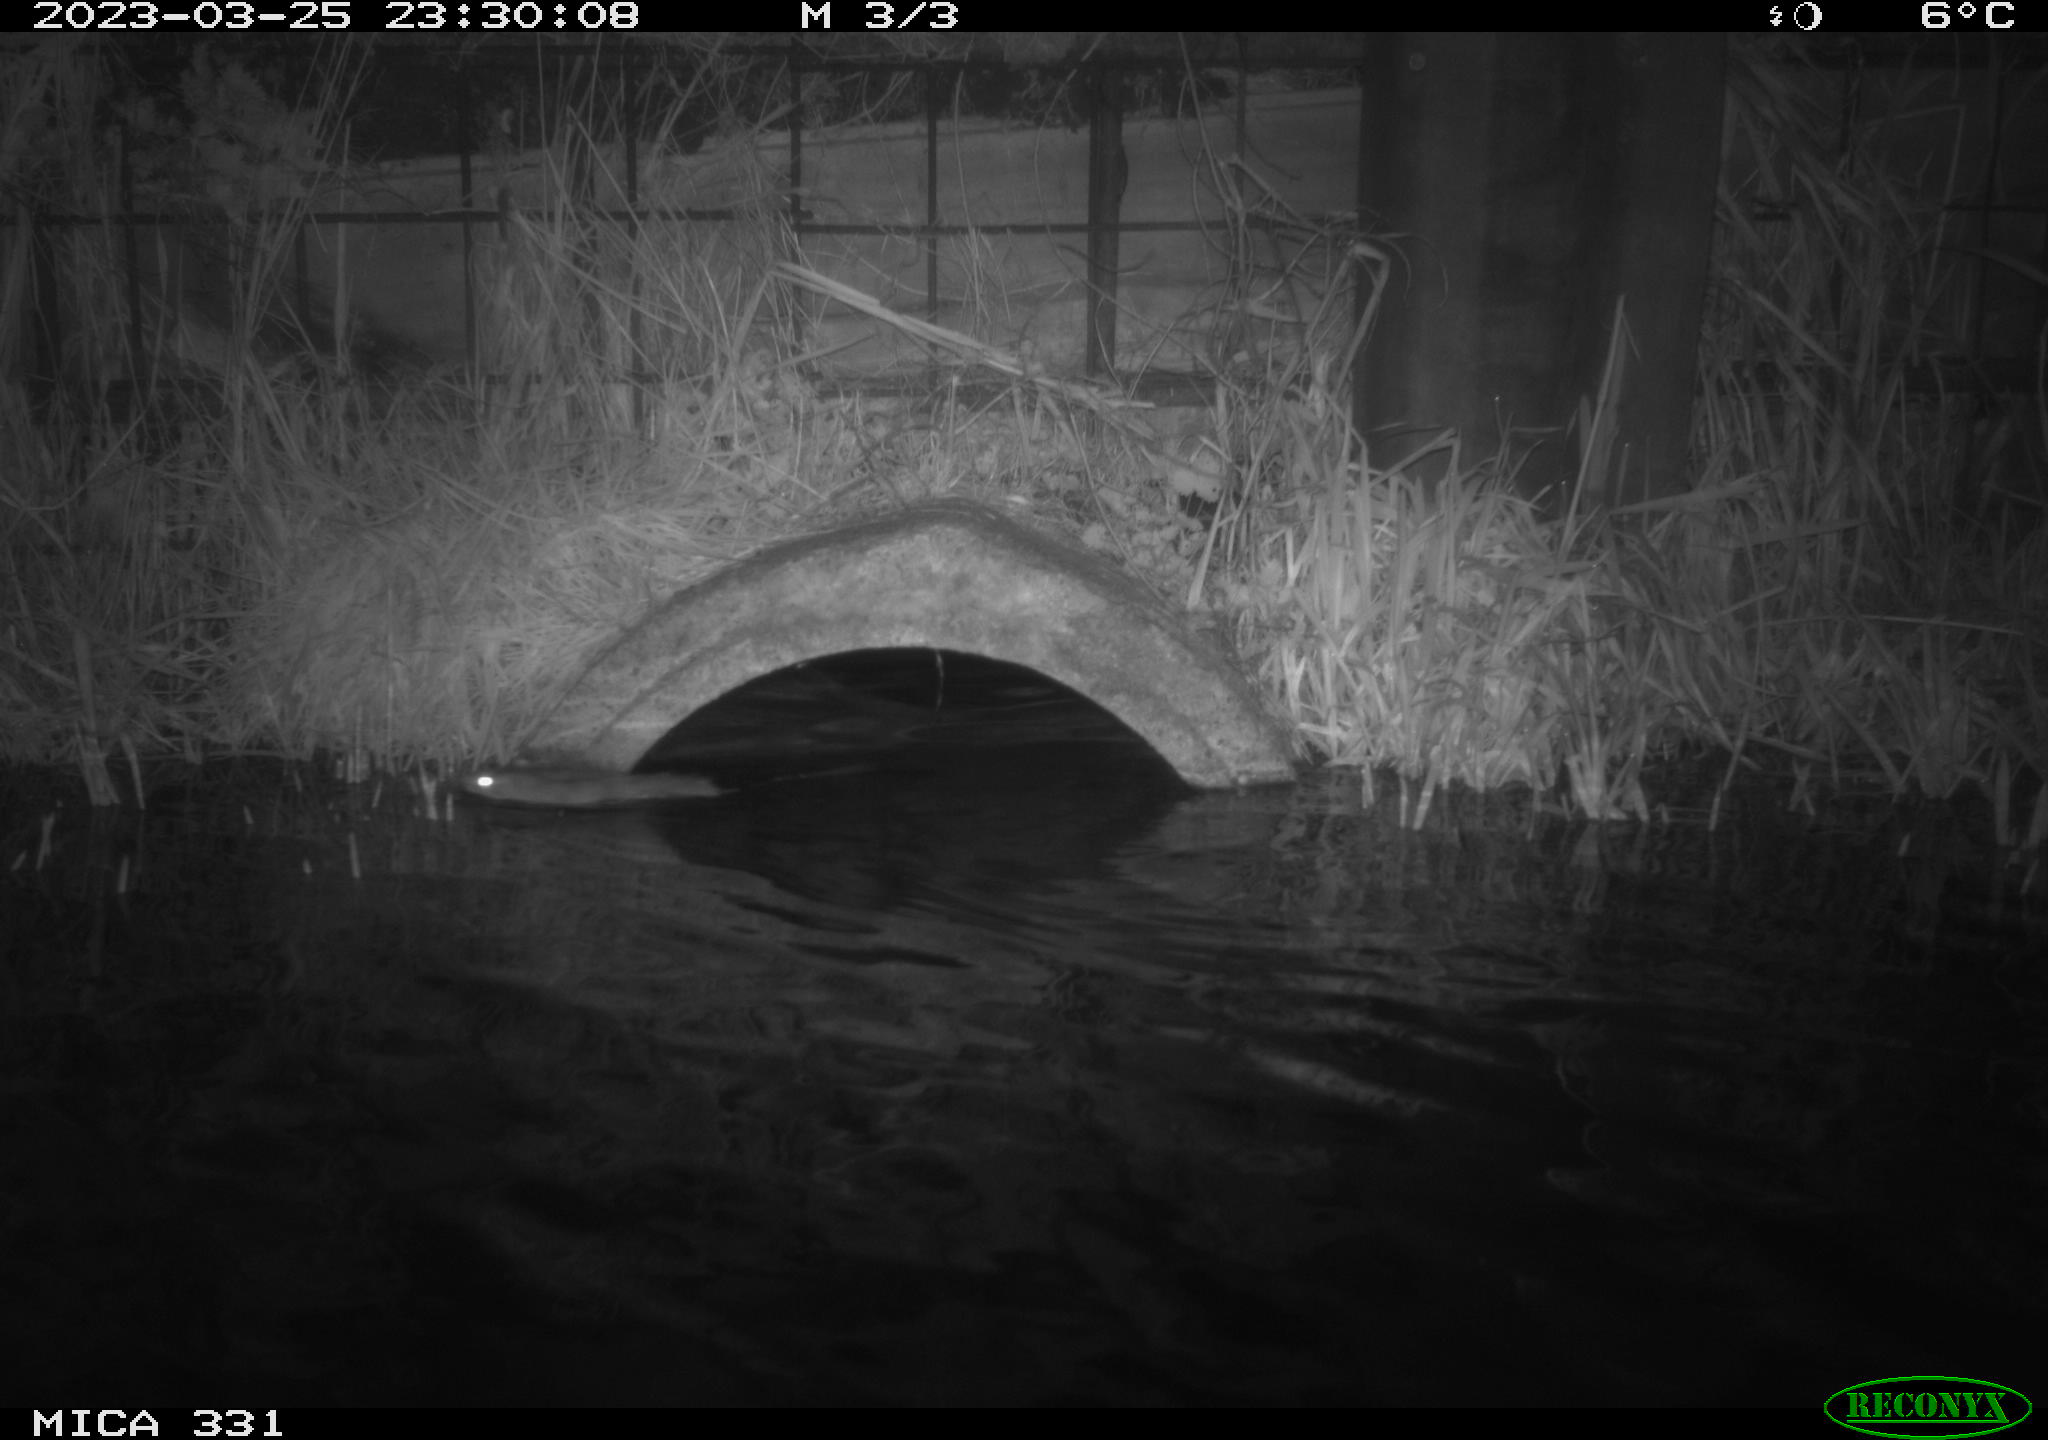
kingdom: Animalia
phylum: Chordata
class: Mammalia
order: Rodentia
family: Muridae
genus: Rattus
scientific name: Rattus norvegicus
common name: Brown rat
